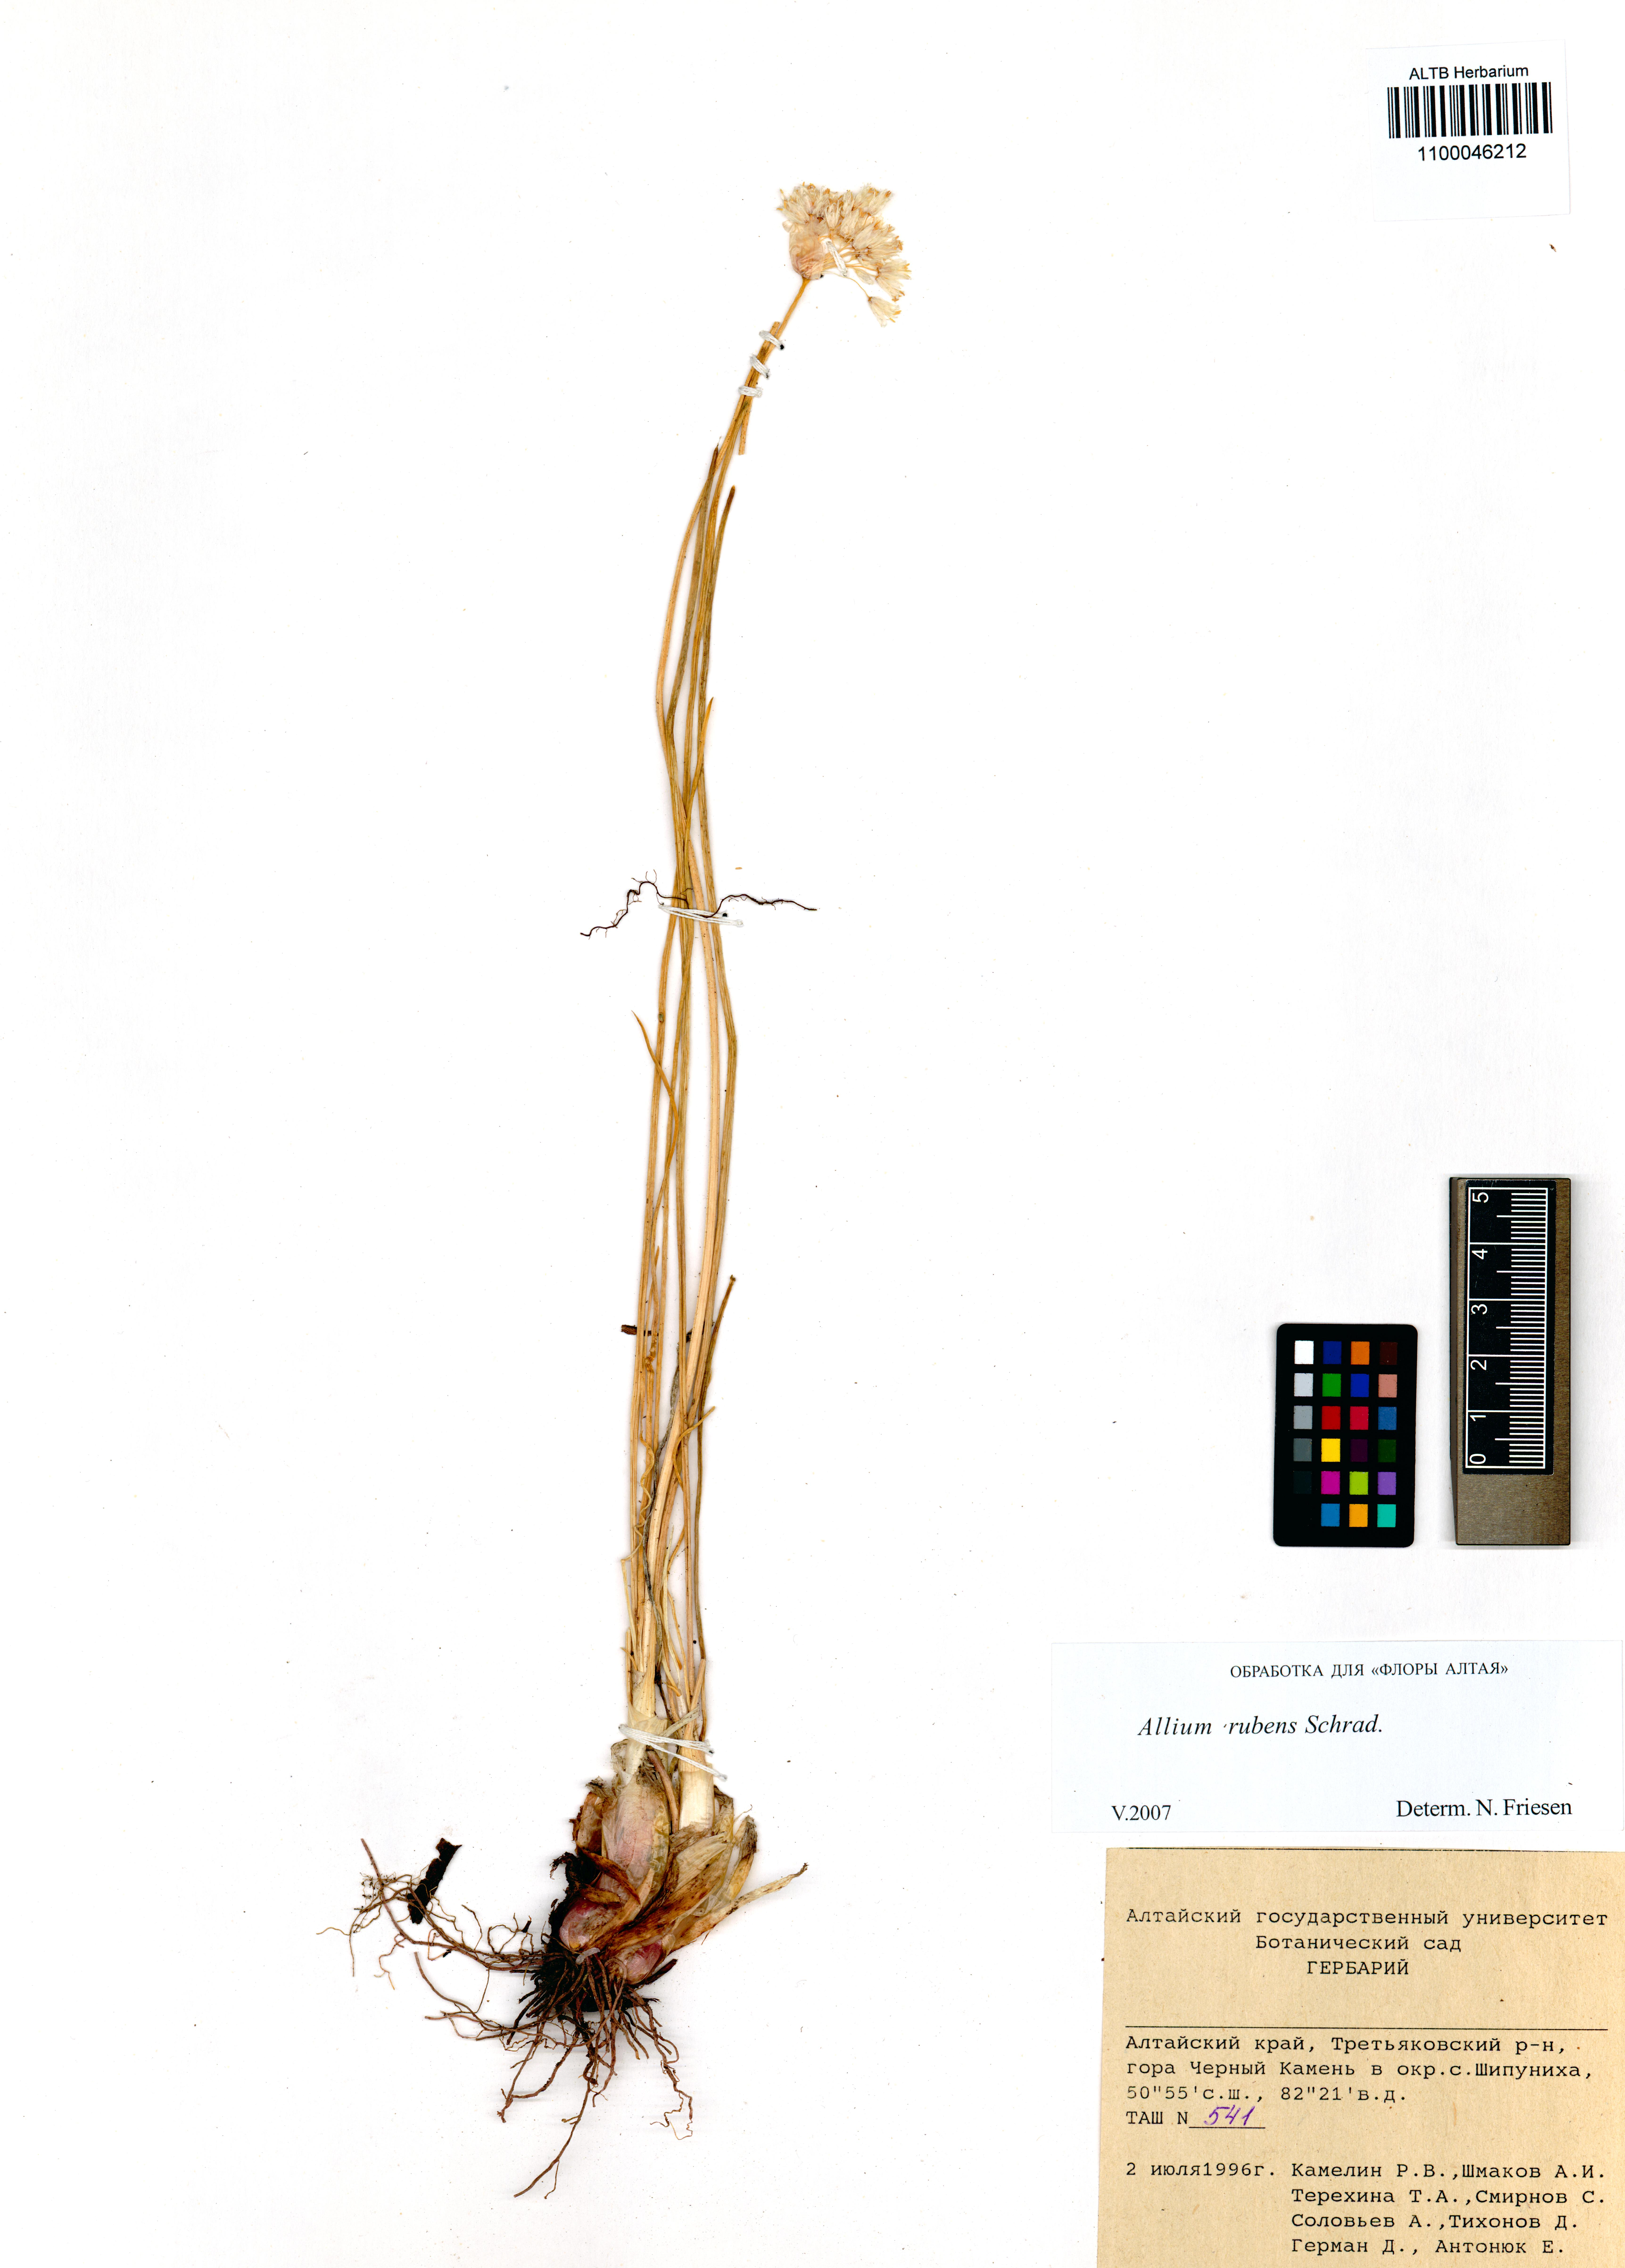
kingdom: Plantae
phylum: Tracheophyta
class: Liliopsida
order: Asparagales
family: Amaryllidaceae
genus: Allium
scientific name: Allium rubens
